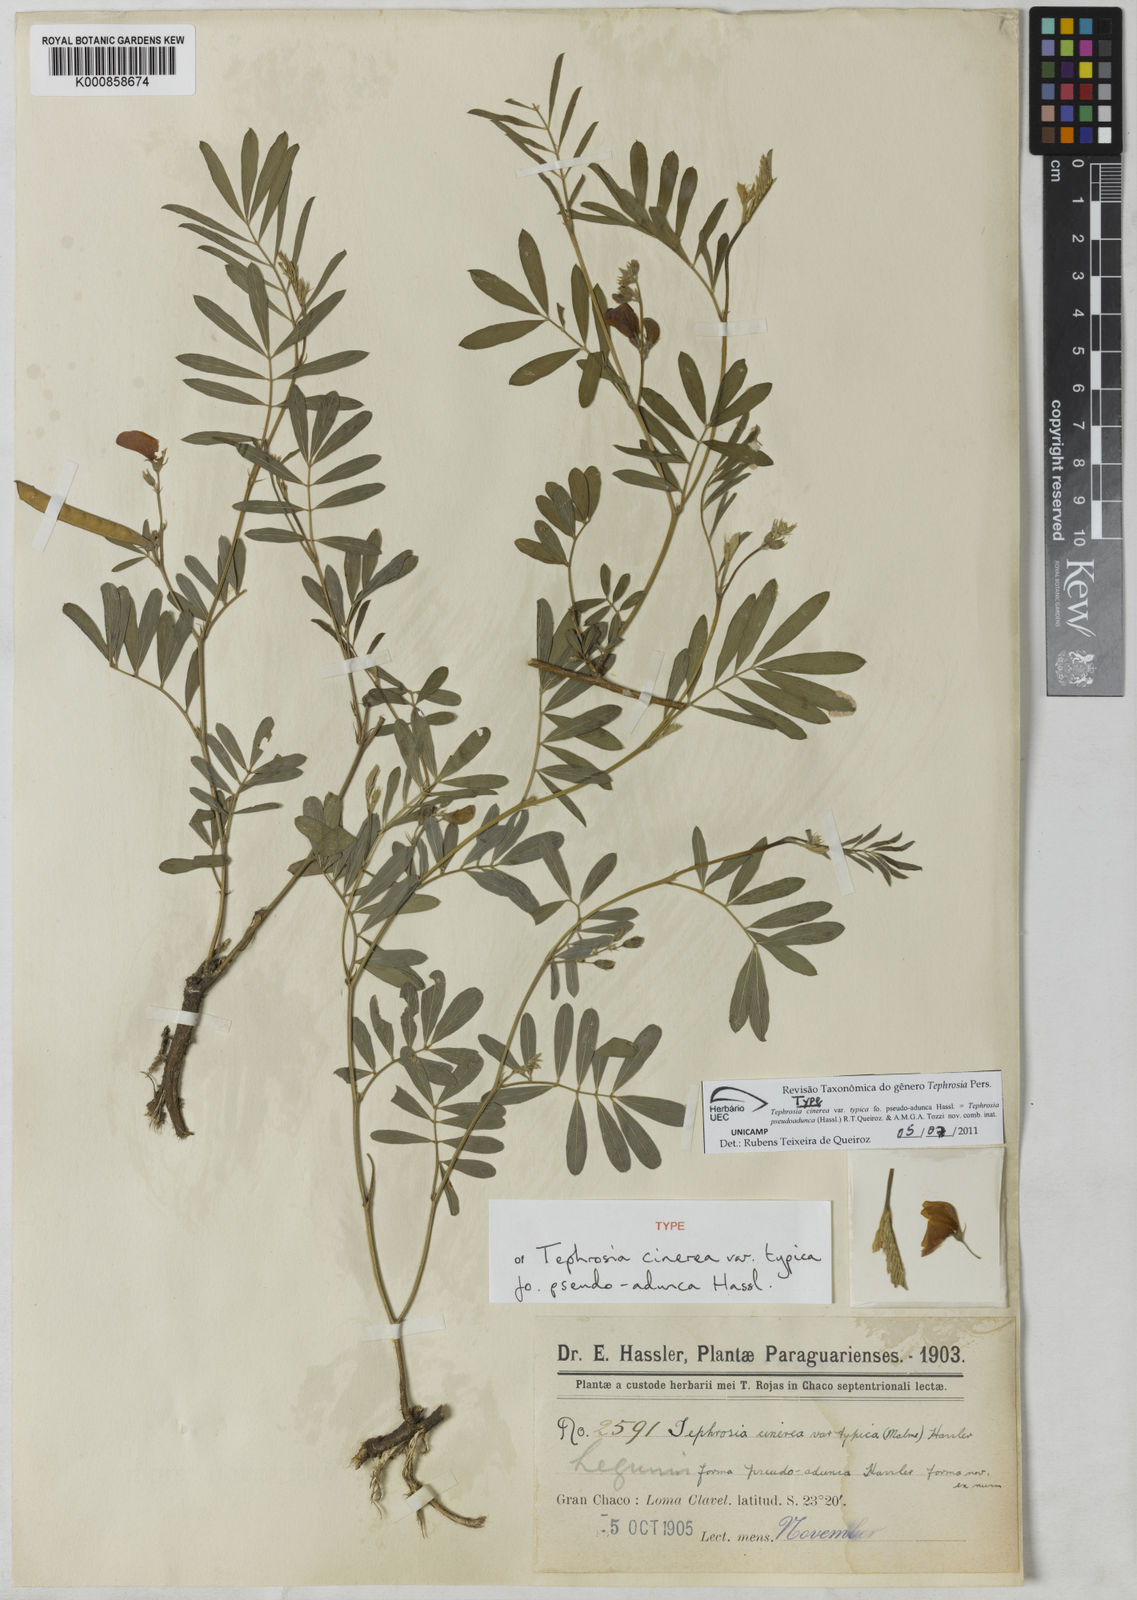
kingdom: Plantae
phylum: Tracheophyta
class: Magnoliopsida
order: Fabales
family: Fabaceae
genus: Tephrosia
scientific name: Tephrosia
